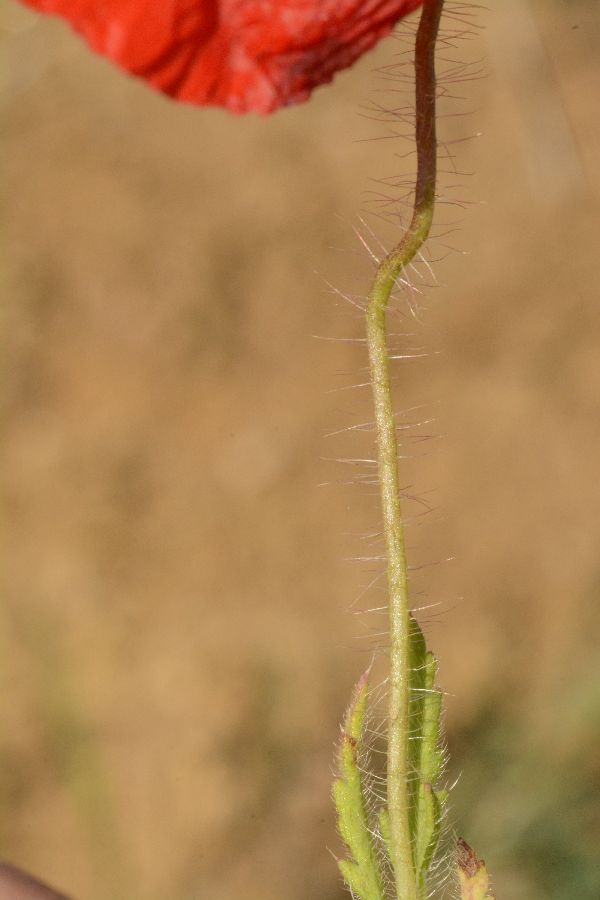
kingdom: Plantae
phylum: Tracheophyta
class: Magnoliopsida
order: Ranunculales
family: Papaveraceae
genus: Papaver
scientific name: Papaver rhoeas
